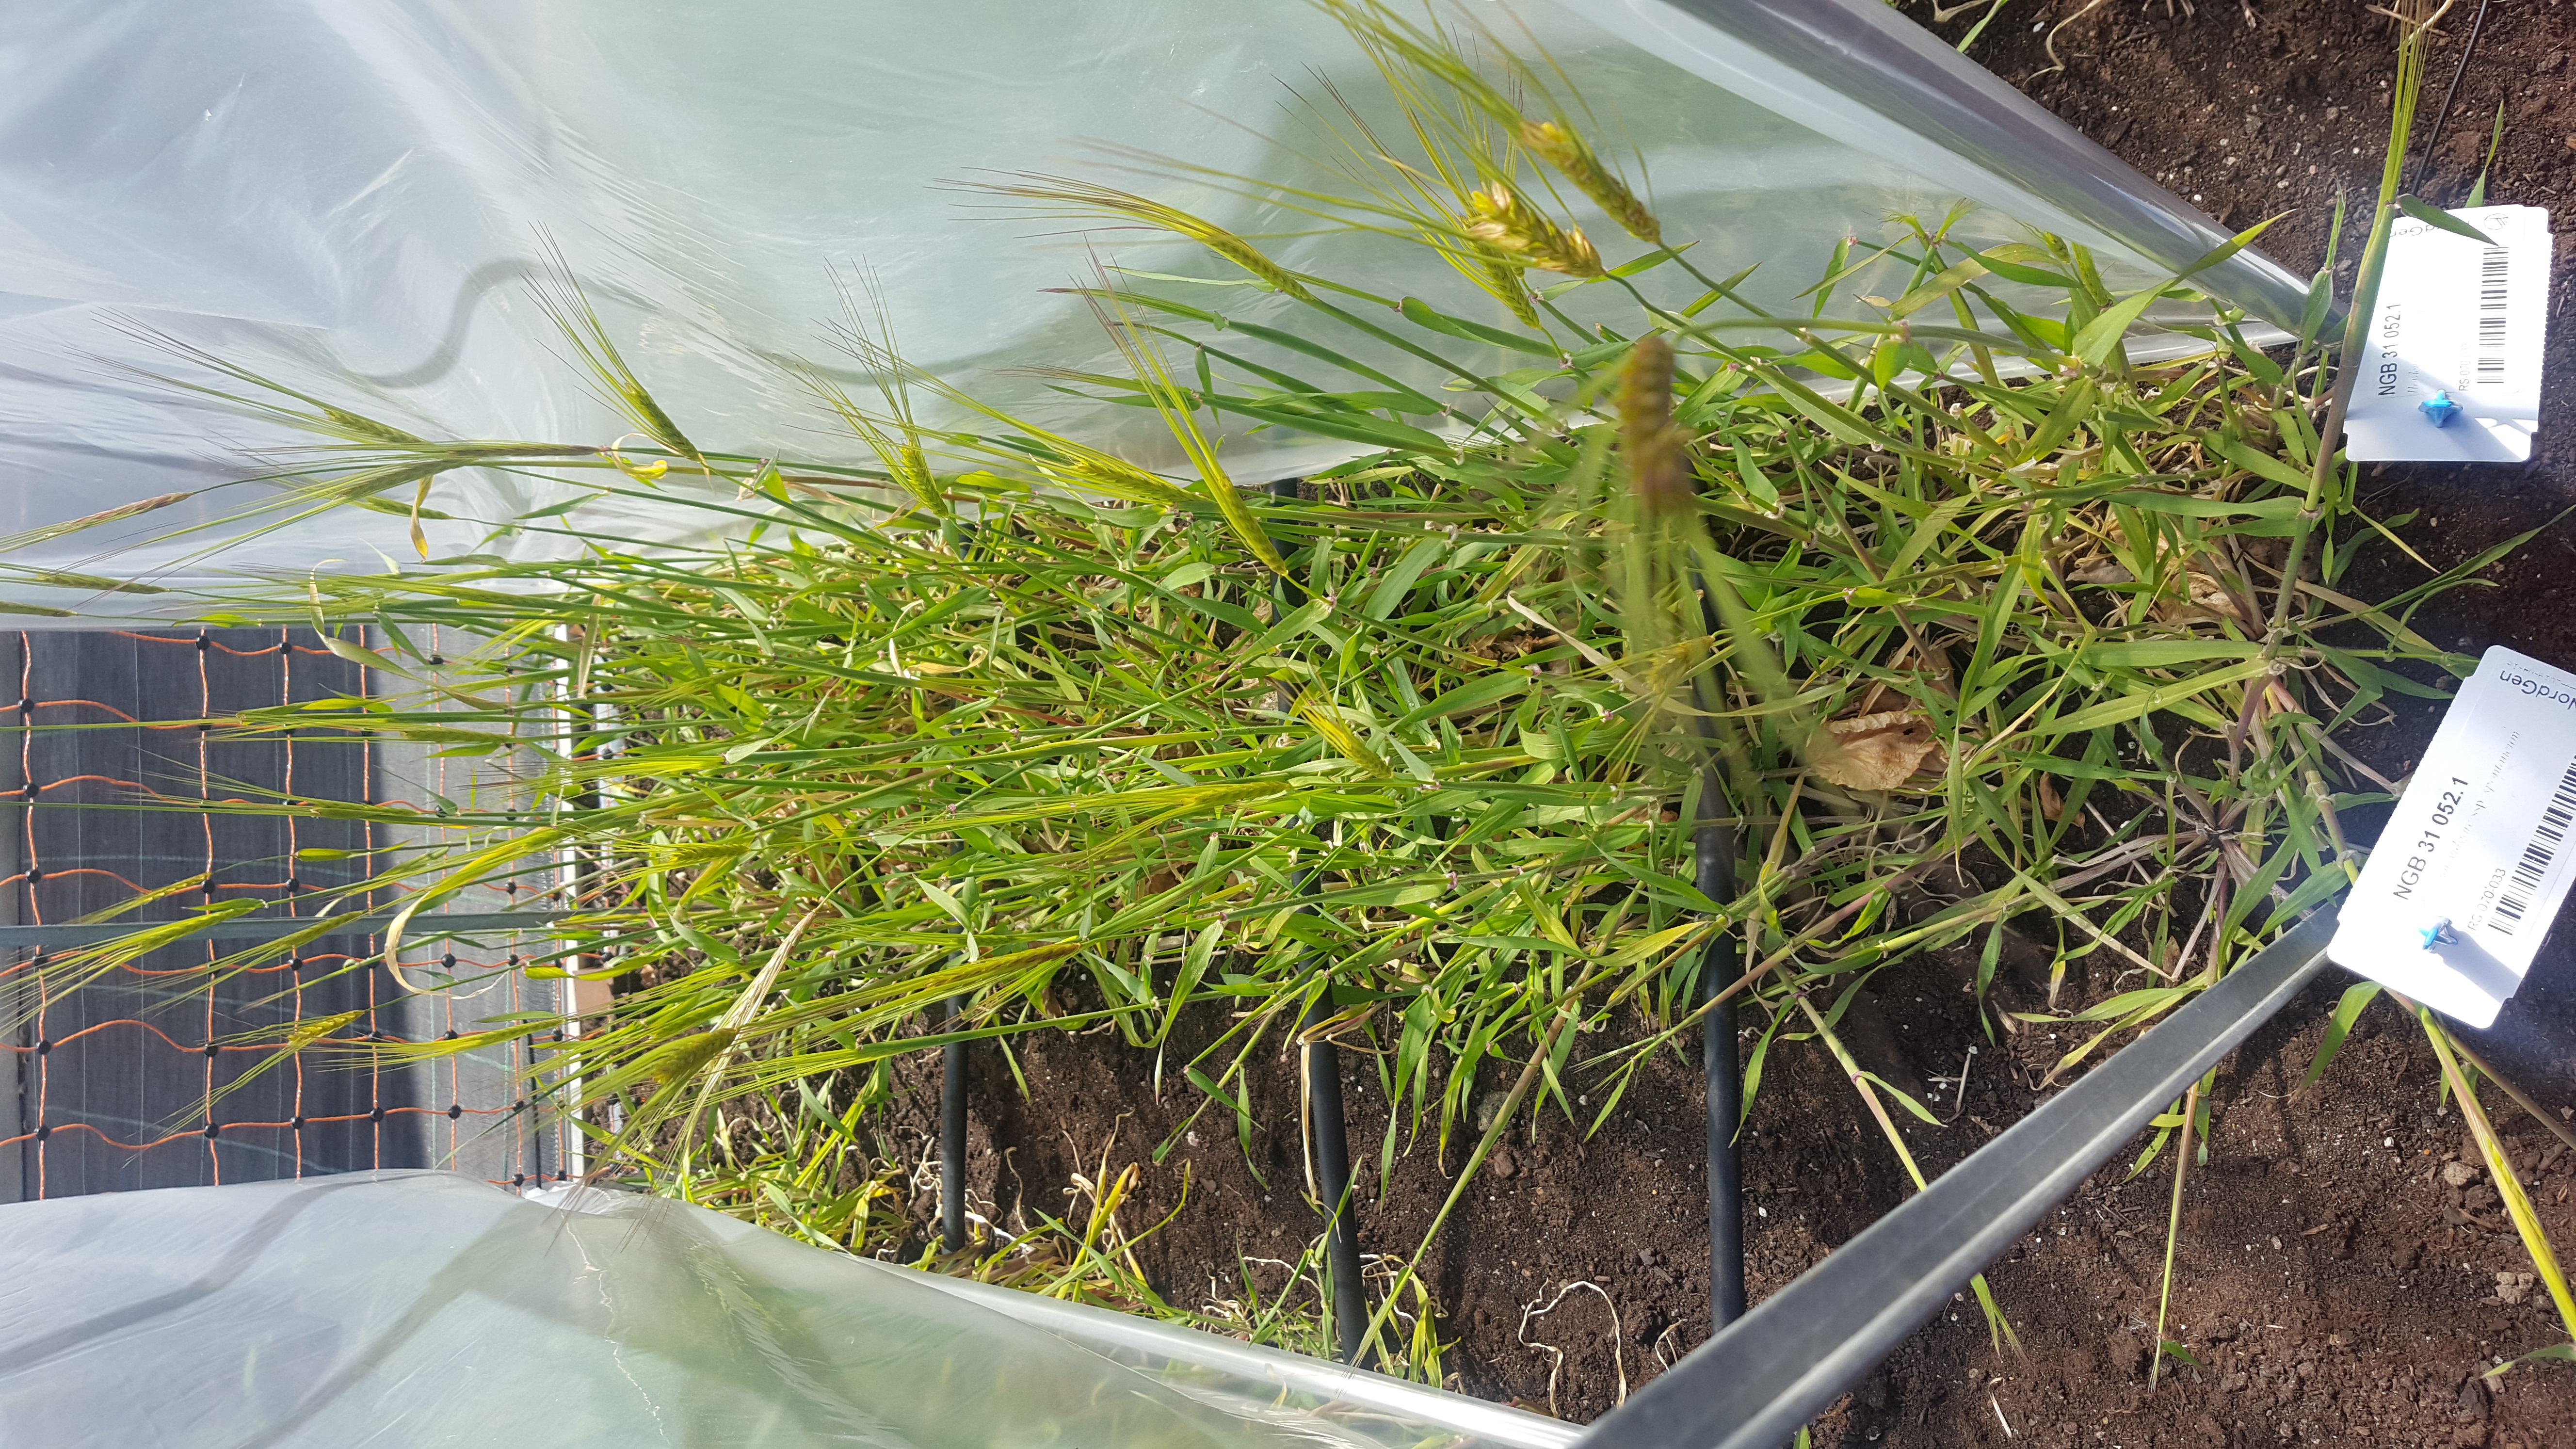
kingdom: Plantae
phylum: Tracheophyta
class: Liliopsida
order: Poales
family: Poaceae
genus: Hordeum
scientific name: Hordeum spontaneum
